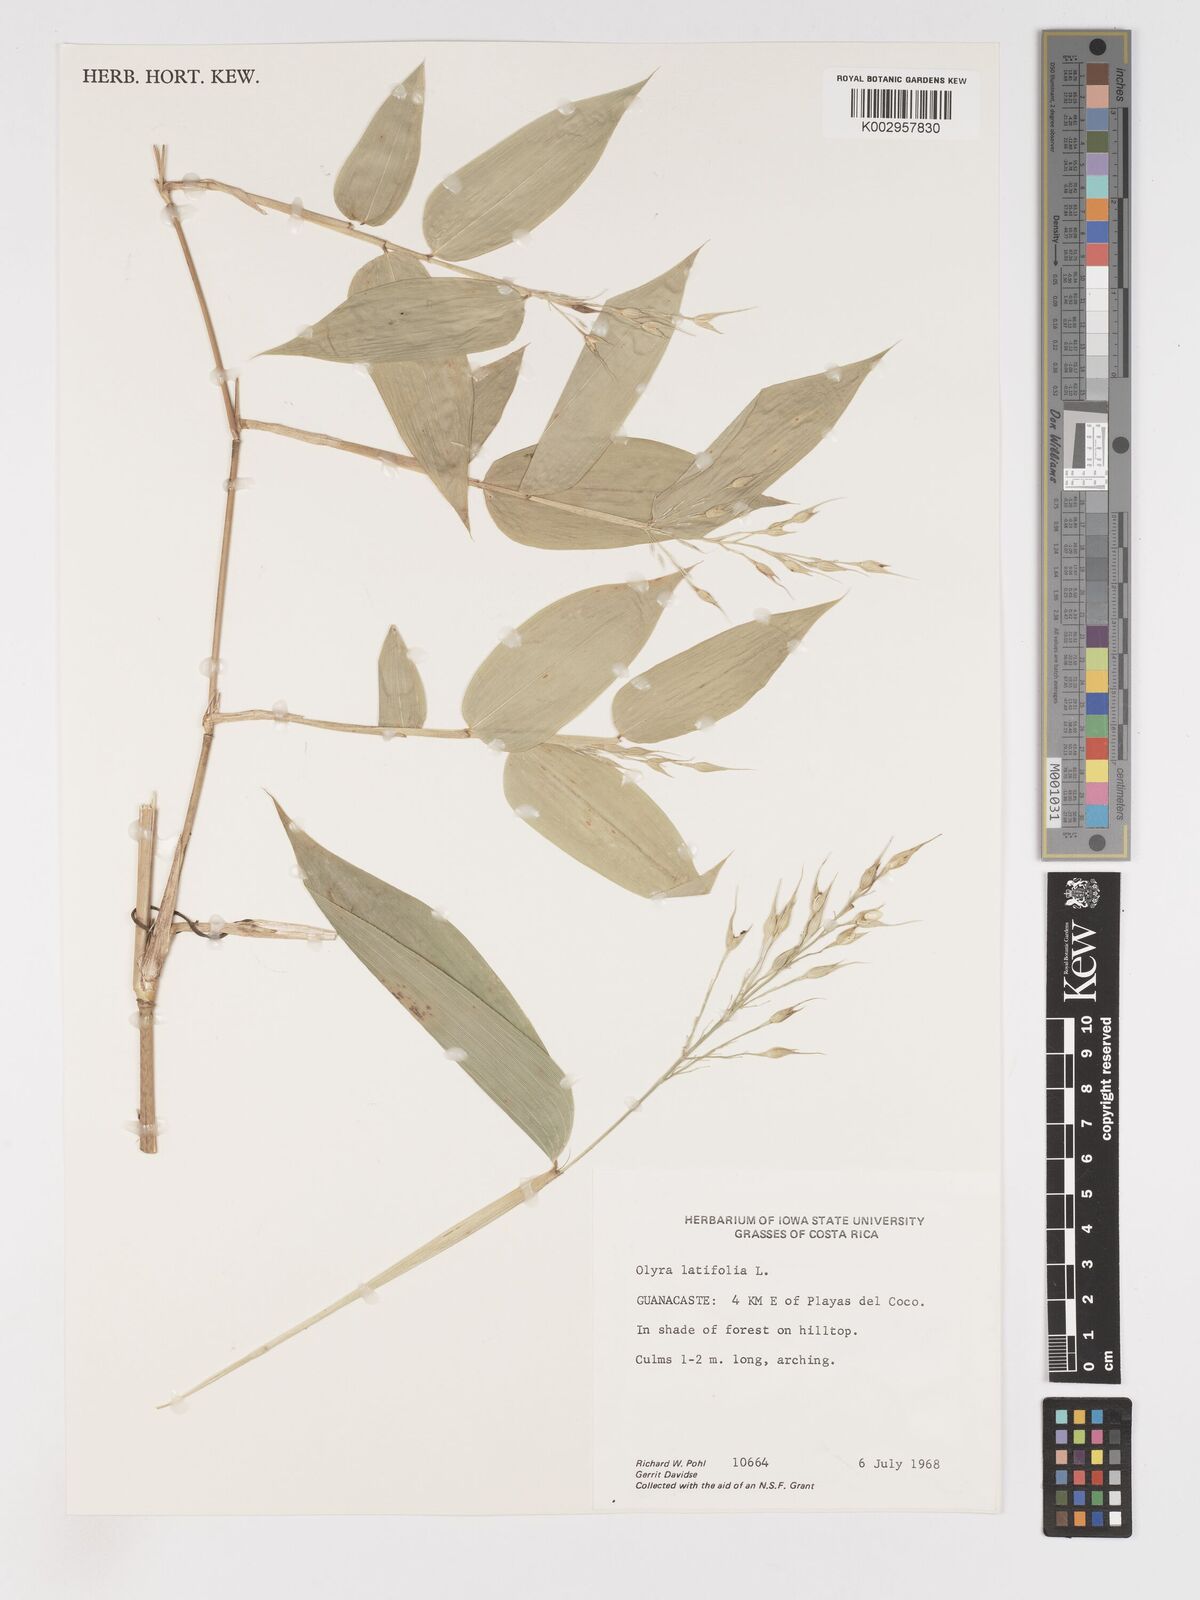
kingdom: Plantae
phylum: Tracheophyta
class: Liliopsida
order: Poales
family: Poaceae
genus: Olyra
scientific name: Olyra latifolia
